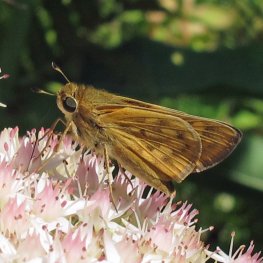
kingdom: Animalia
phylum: Arthropoda
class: Insecta
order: Lepidoptera
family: Hesperiidae
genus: Atalopedes
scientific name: Atalopedes campestris
